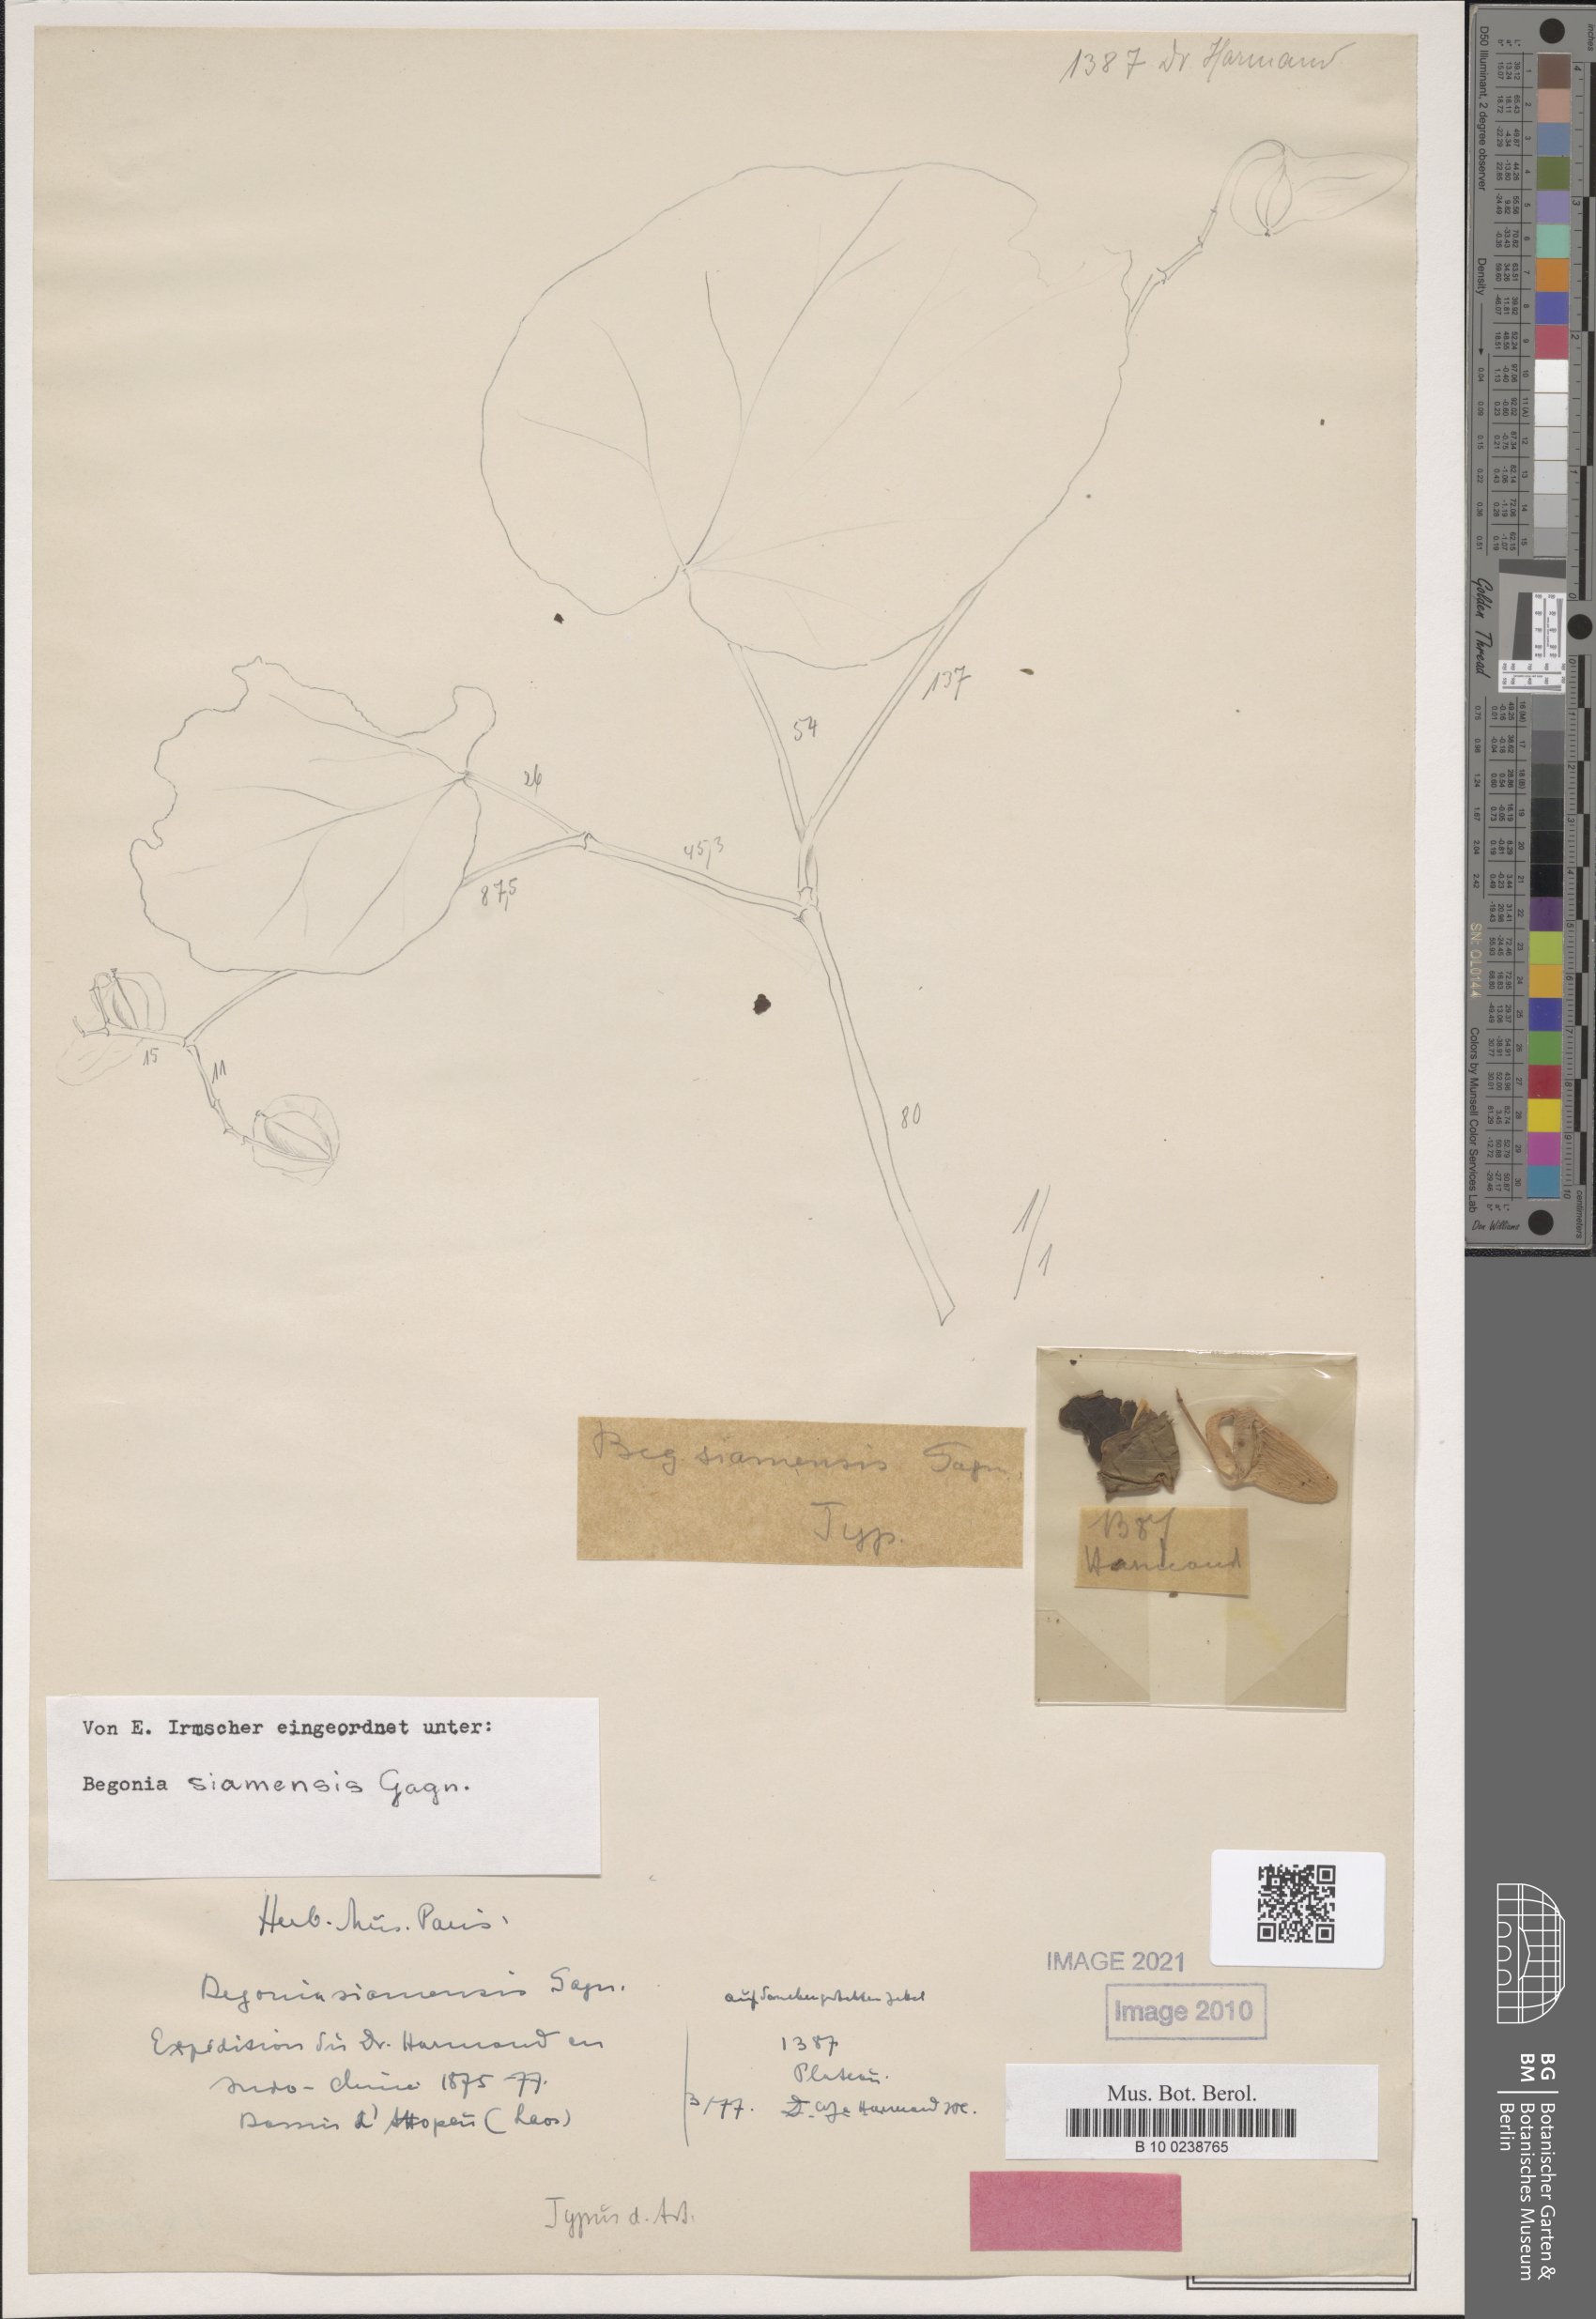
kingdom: Plantae
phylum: Tracheophyta
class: Magnoliopsida
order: Cucurbitales
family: Begoniaceae
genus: Begonia
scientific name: Begonia siamensis
